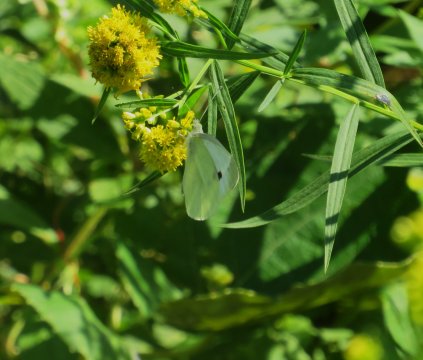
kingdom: Animalia
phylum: Arthropoda
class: Insecta
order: Lepidoptera
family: Pieridae
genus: Pieris
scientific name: Pieris rapae
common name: Cabbage White
